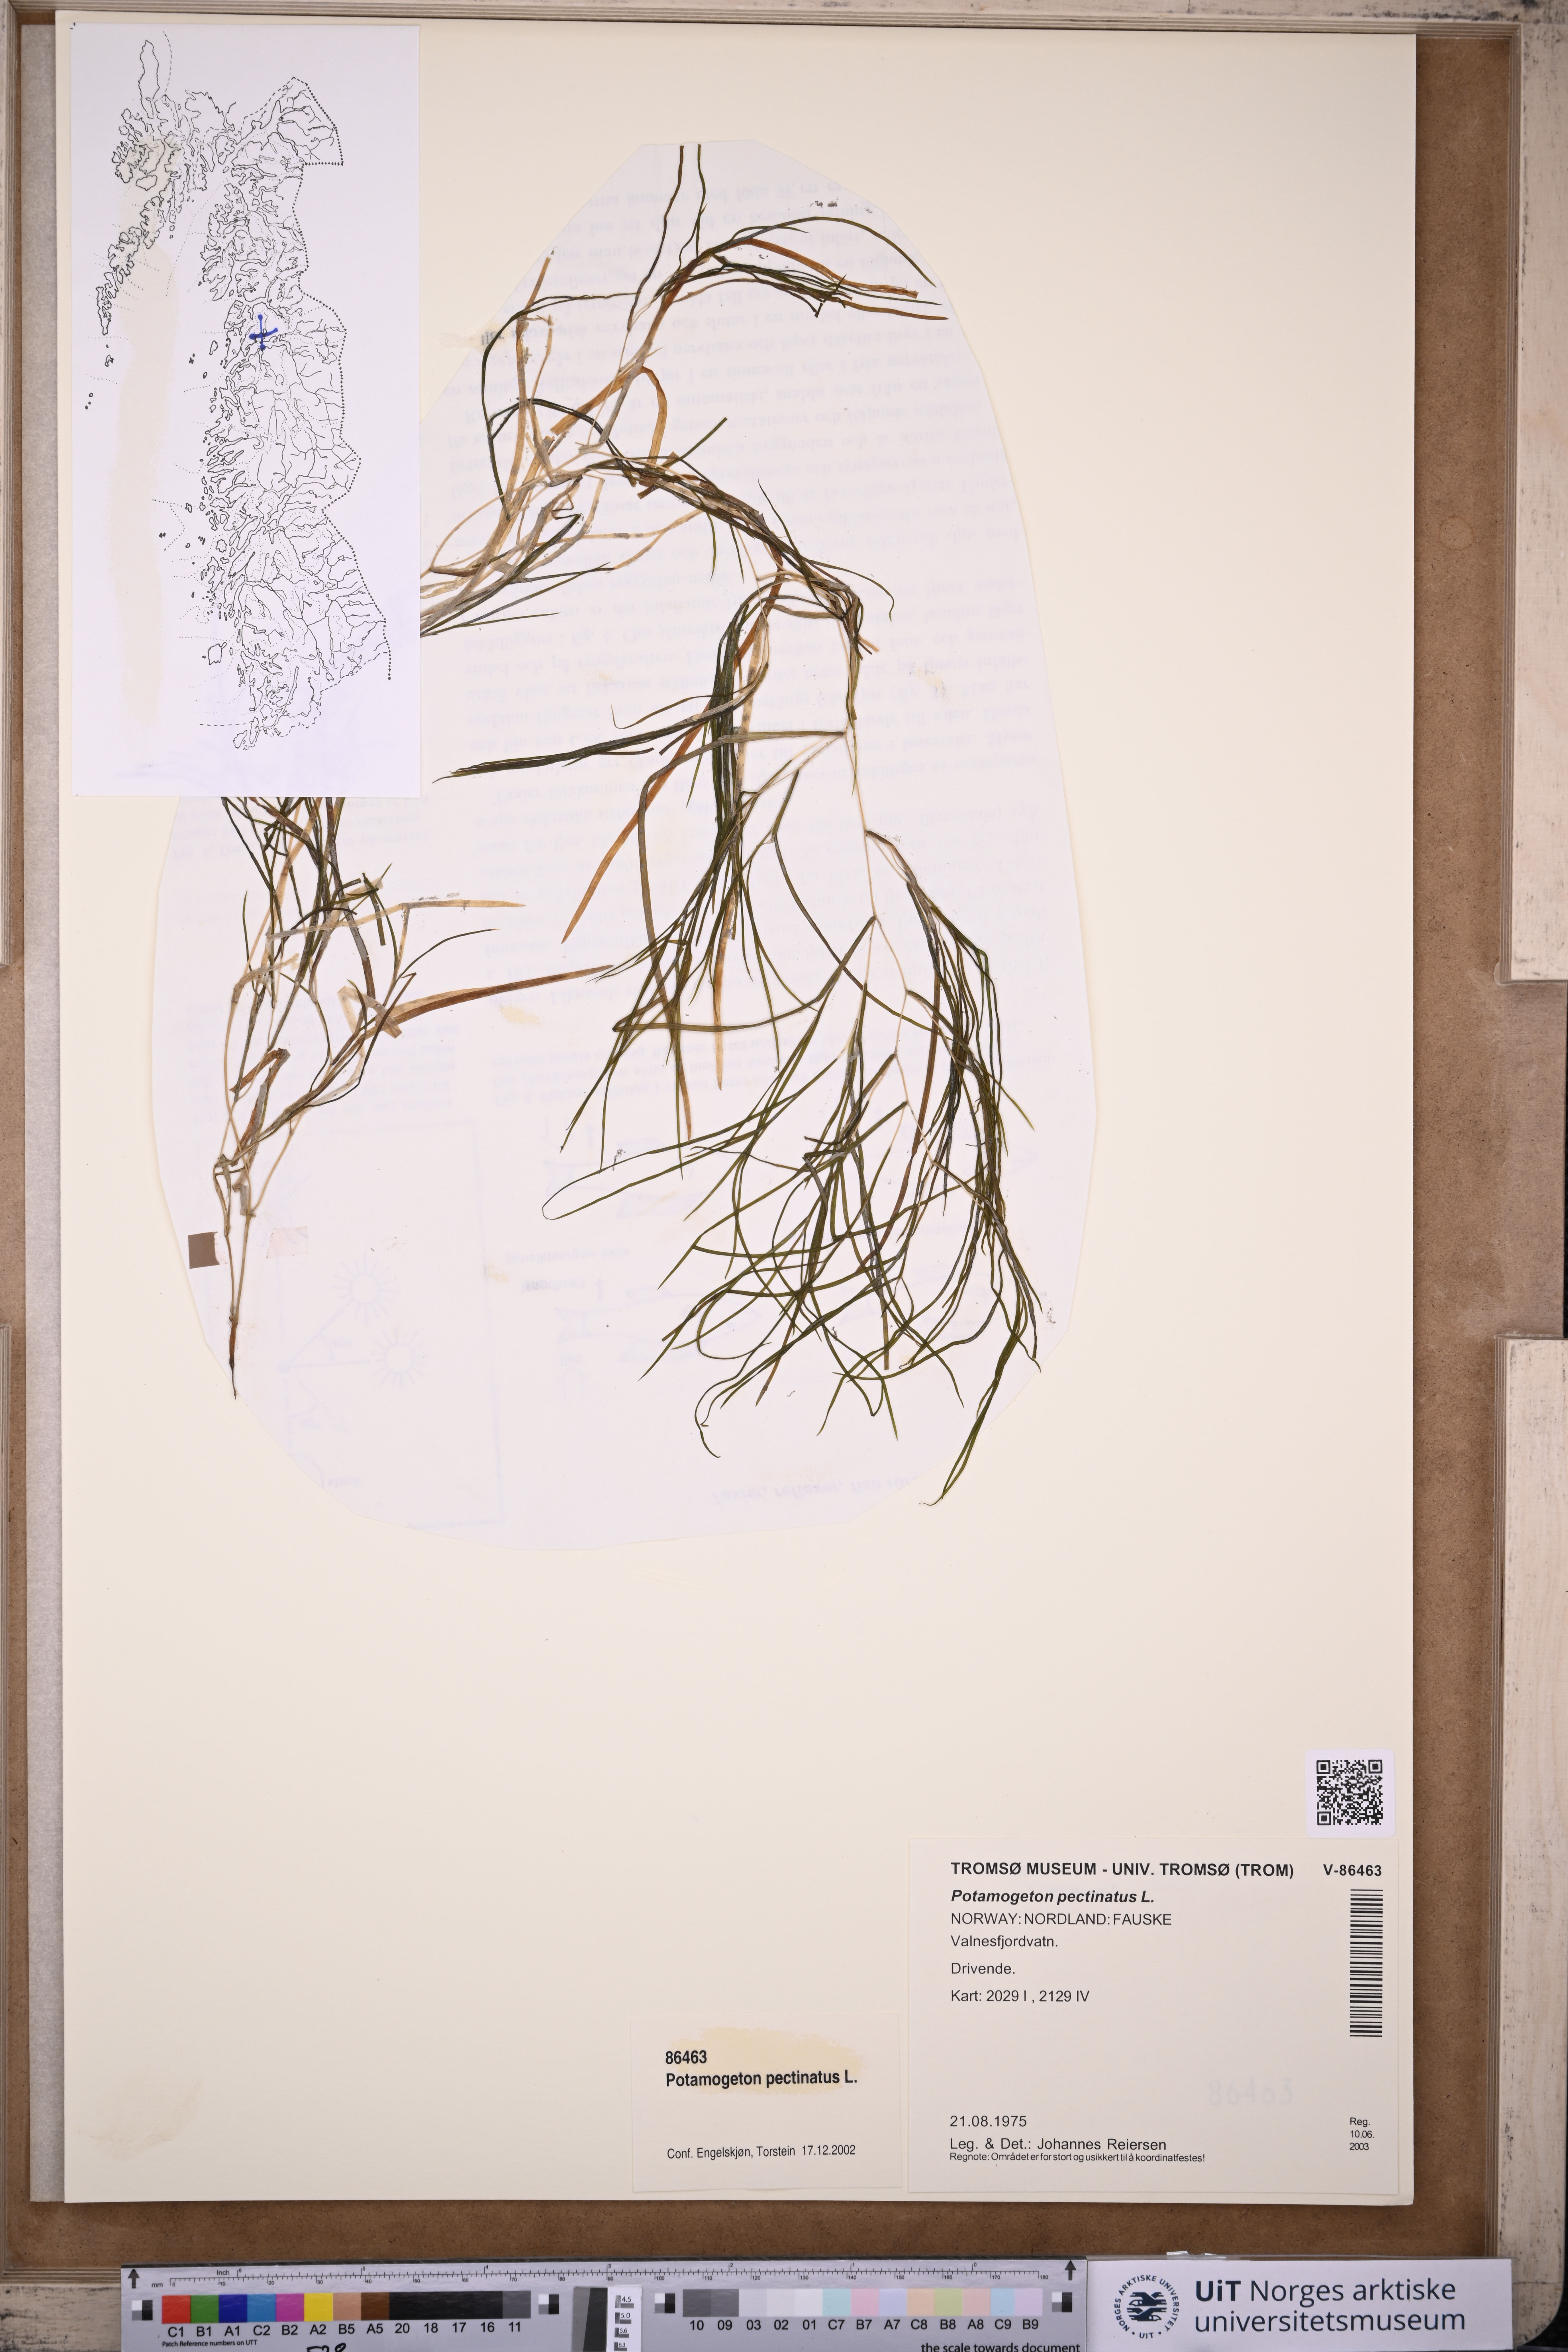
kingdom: Plantae
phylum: Tracheophyta
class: Liliopsida
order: Alismatales
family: Potamogetonaceae
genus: Stuckenia
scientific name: Stuckenia pectinata
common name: Sago pondweed
